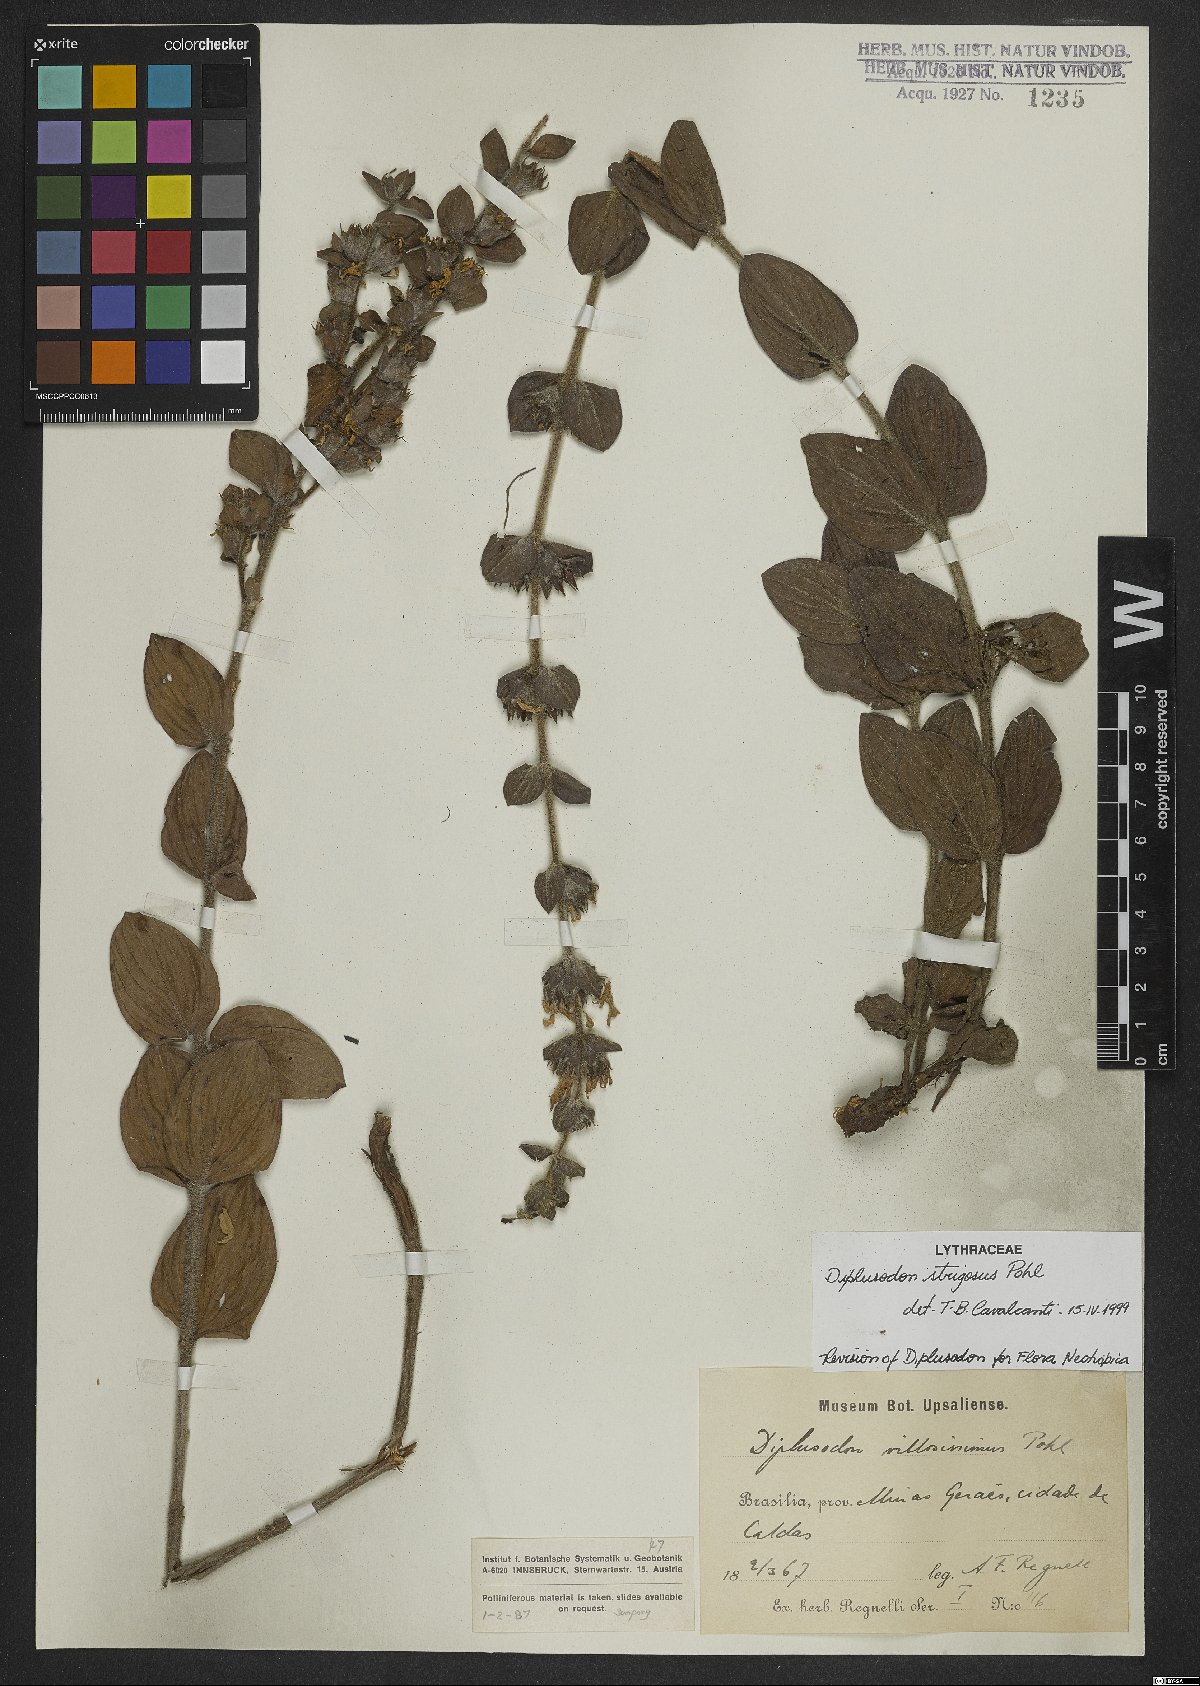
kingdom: Plantae
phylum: Tracheophyta
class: Magnoliopsida
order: Myrtales
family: Lythraceae
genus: Diplusodon
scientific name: Diplusodon strigosus
